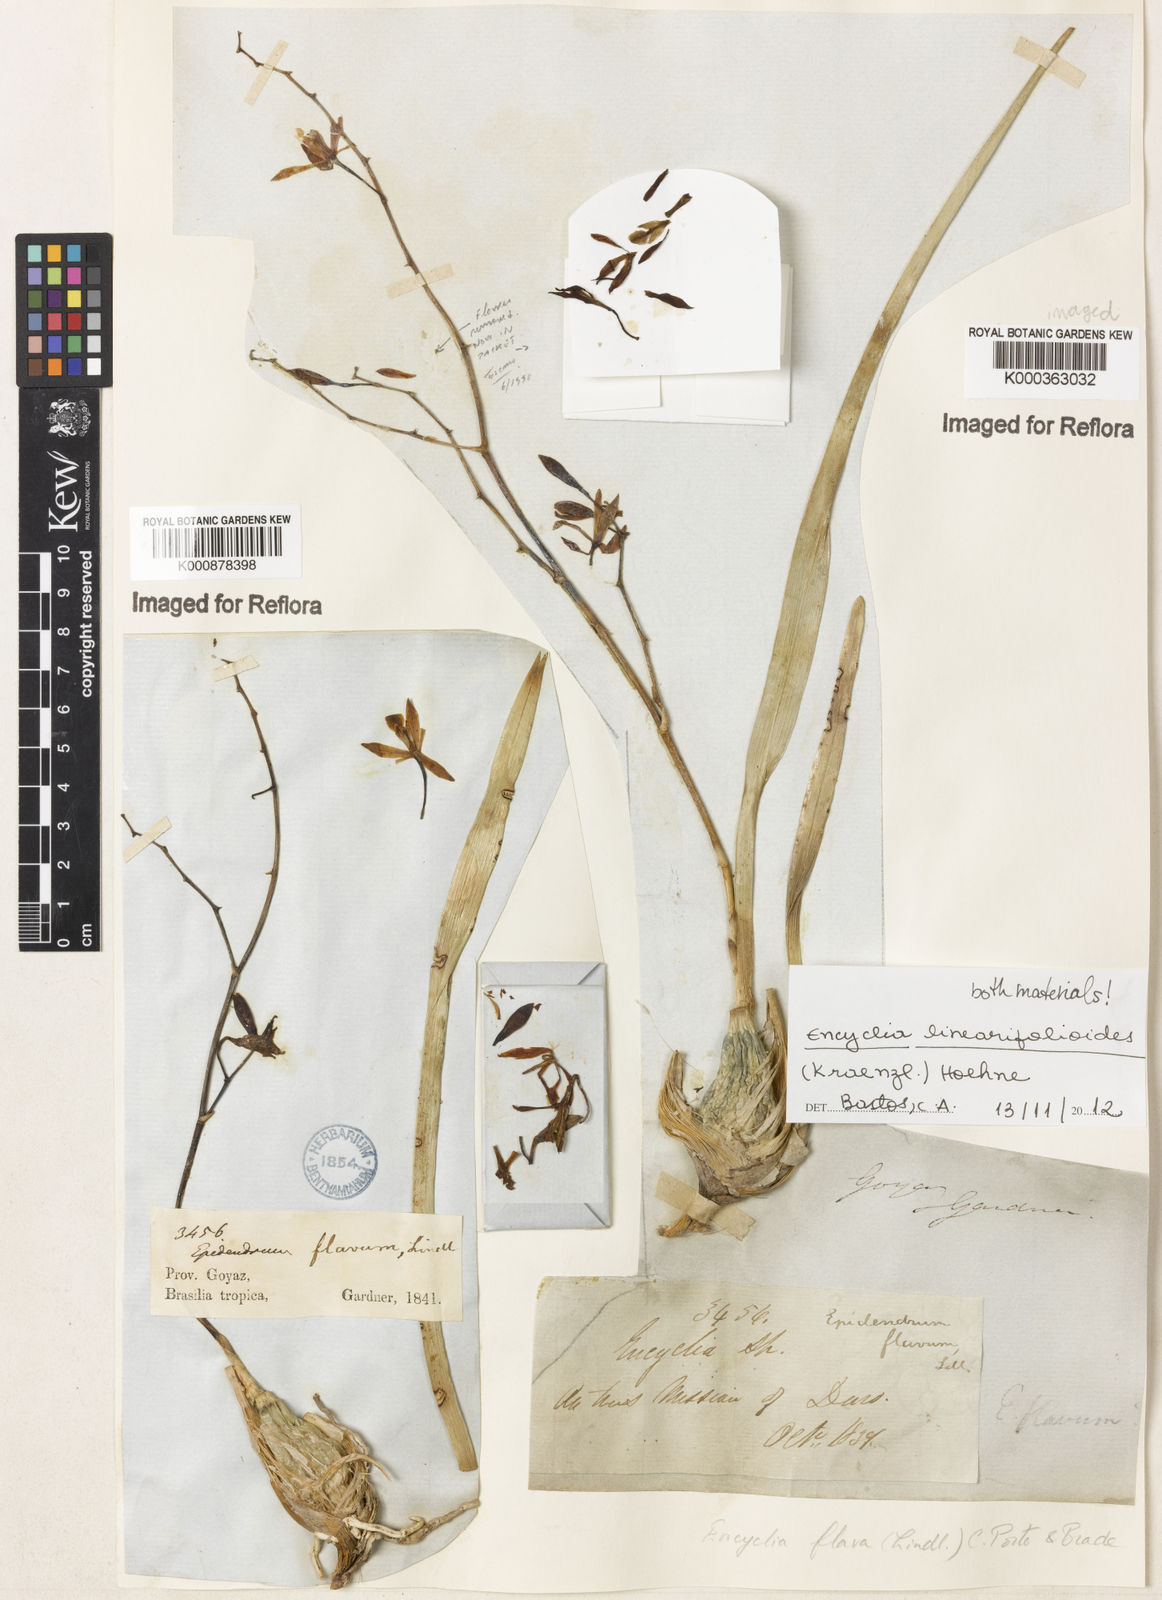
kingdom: Plantae
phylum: Tracheophyta
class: Liliopsida
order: Asparagales
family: Orchidaceae
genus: Encyclia
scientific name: Encyclia linearifolioides
